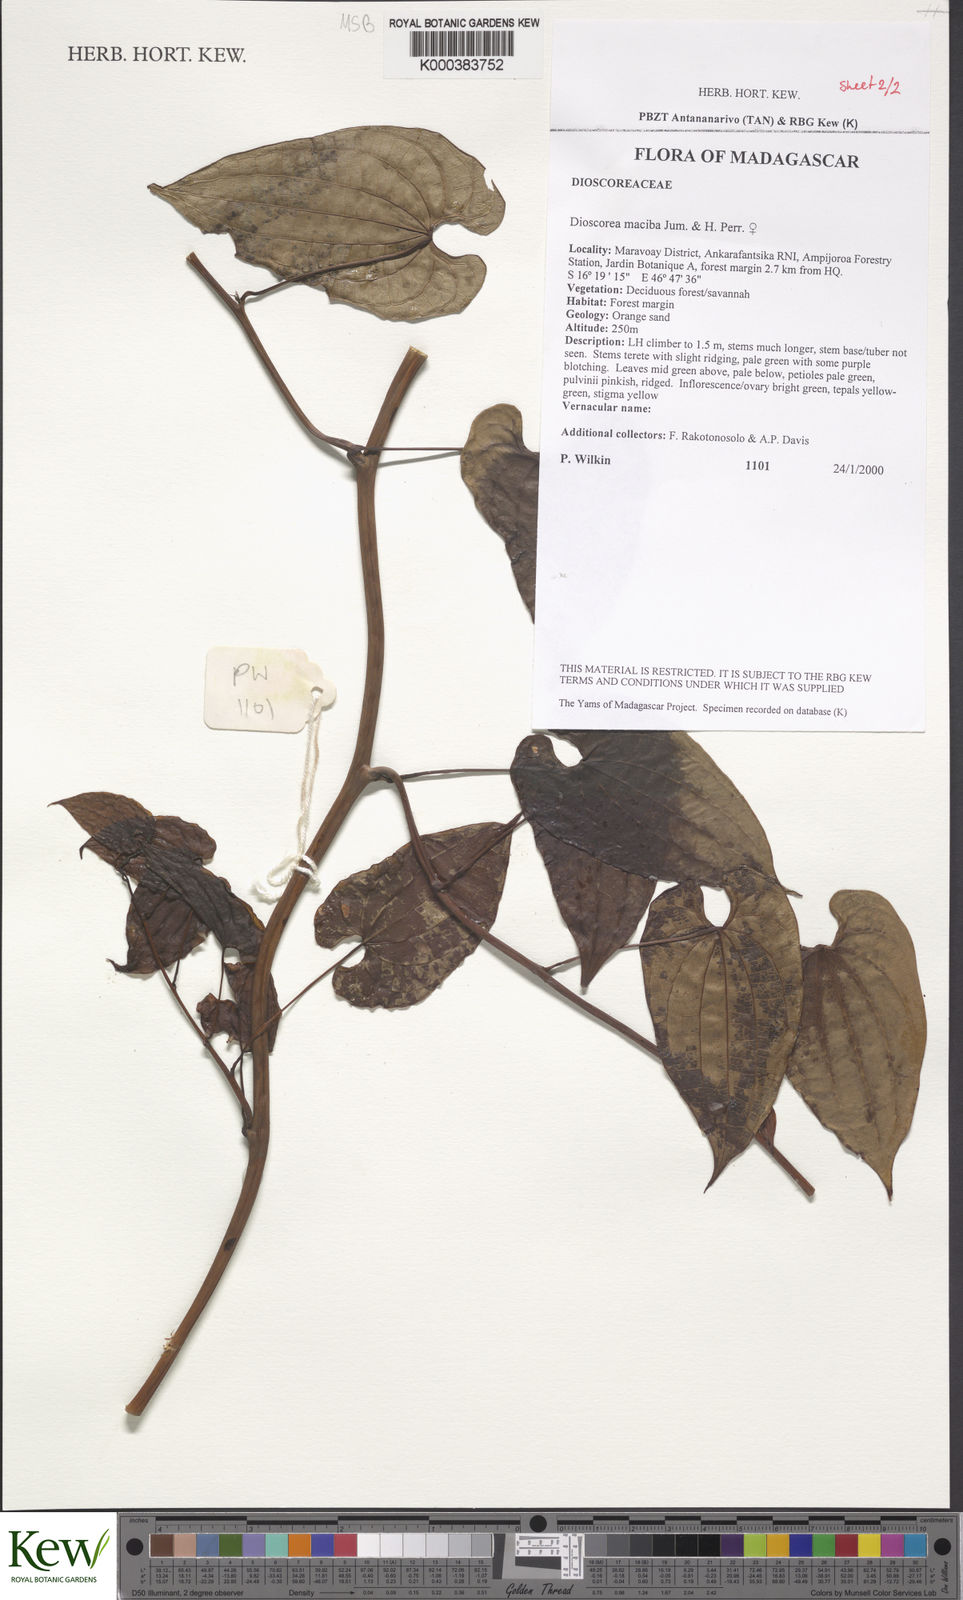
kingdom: Plantae
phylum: Tracheophyta
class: Liliopsida
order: Dioscoreales
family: Dioscoreaceae
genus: Dioscorea
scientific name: Dioscorea
